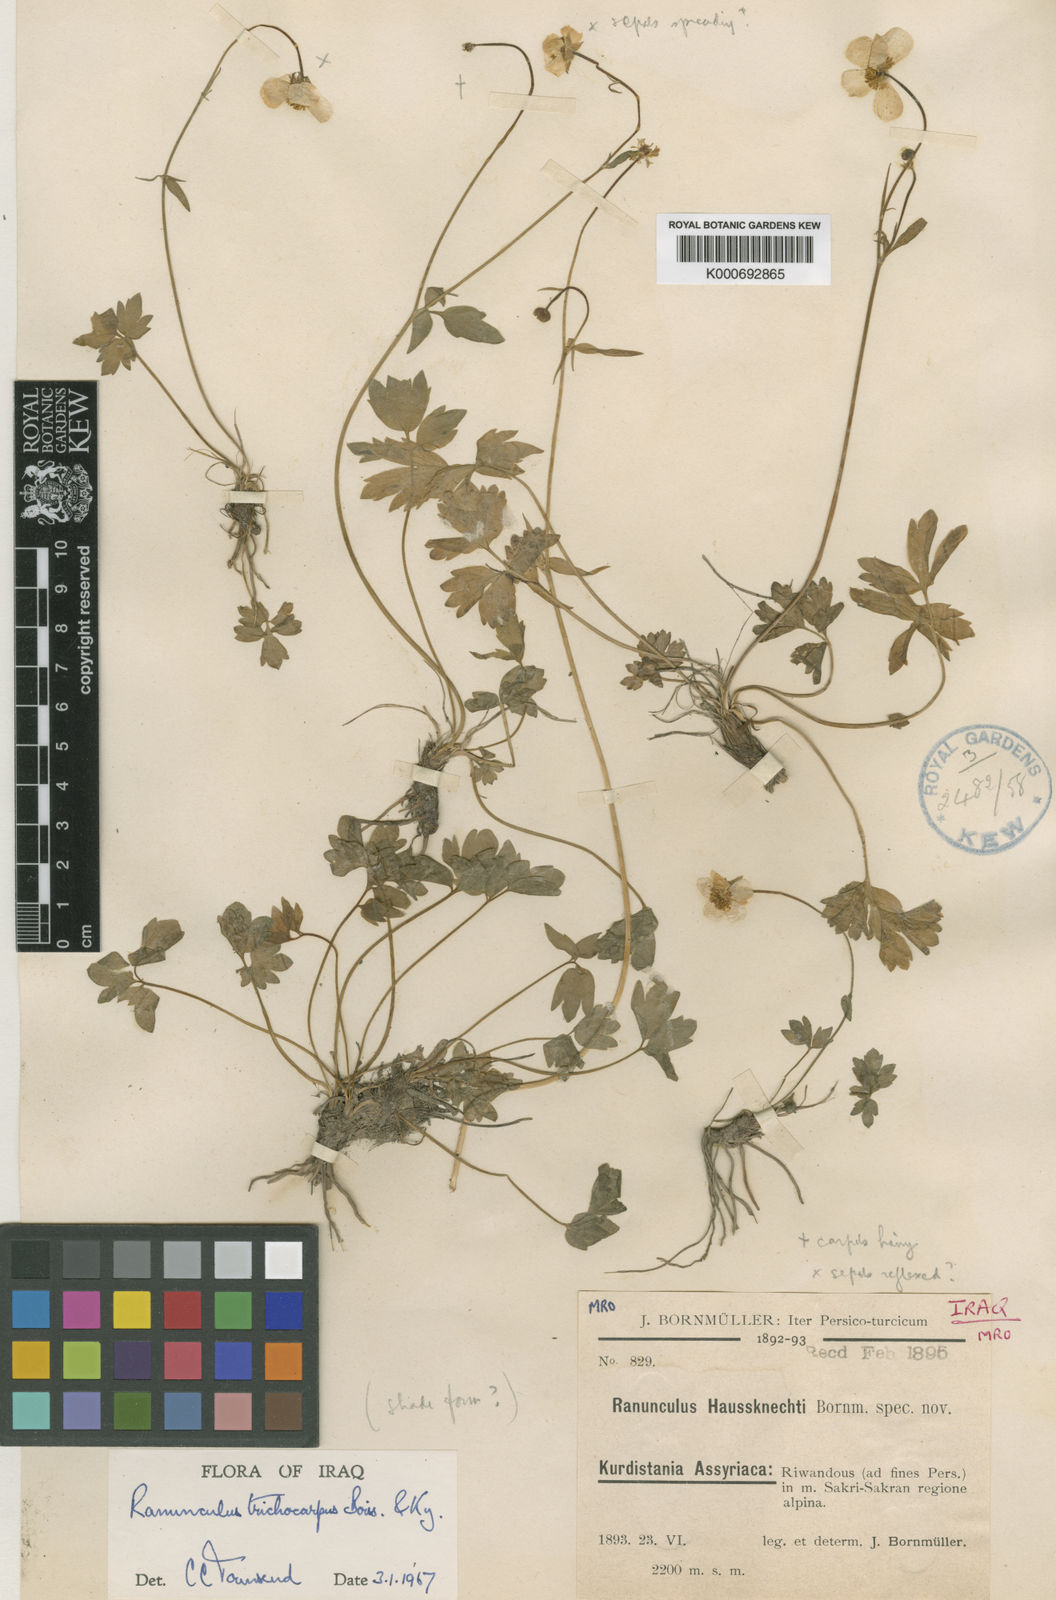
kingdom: Plantae
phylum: Tracheophyta
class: Magnoliopsida
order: Ranunculales
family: Ranunculaceae
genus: Ranunculus
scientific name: Ranunculus trichocarpus
